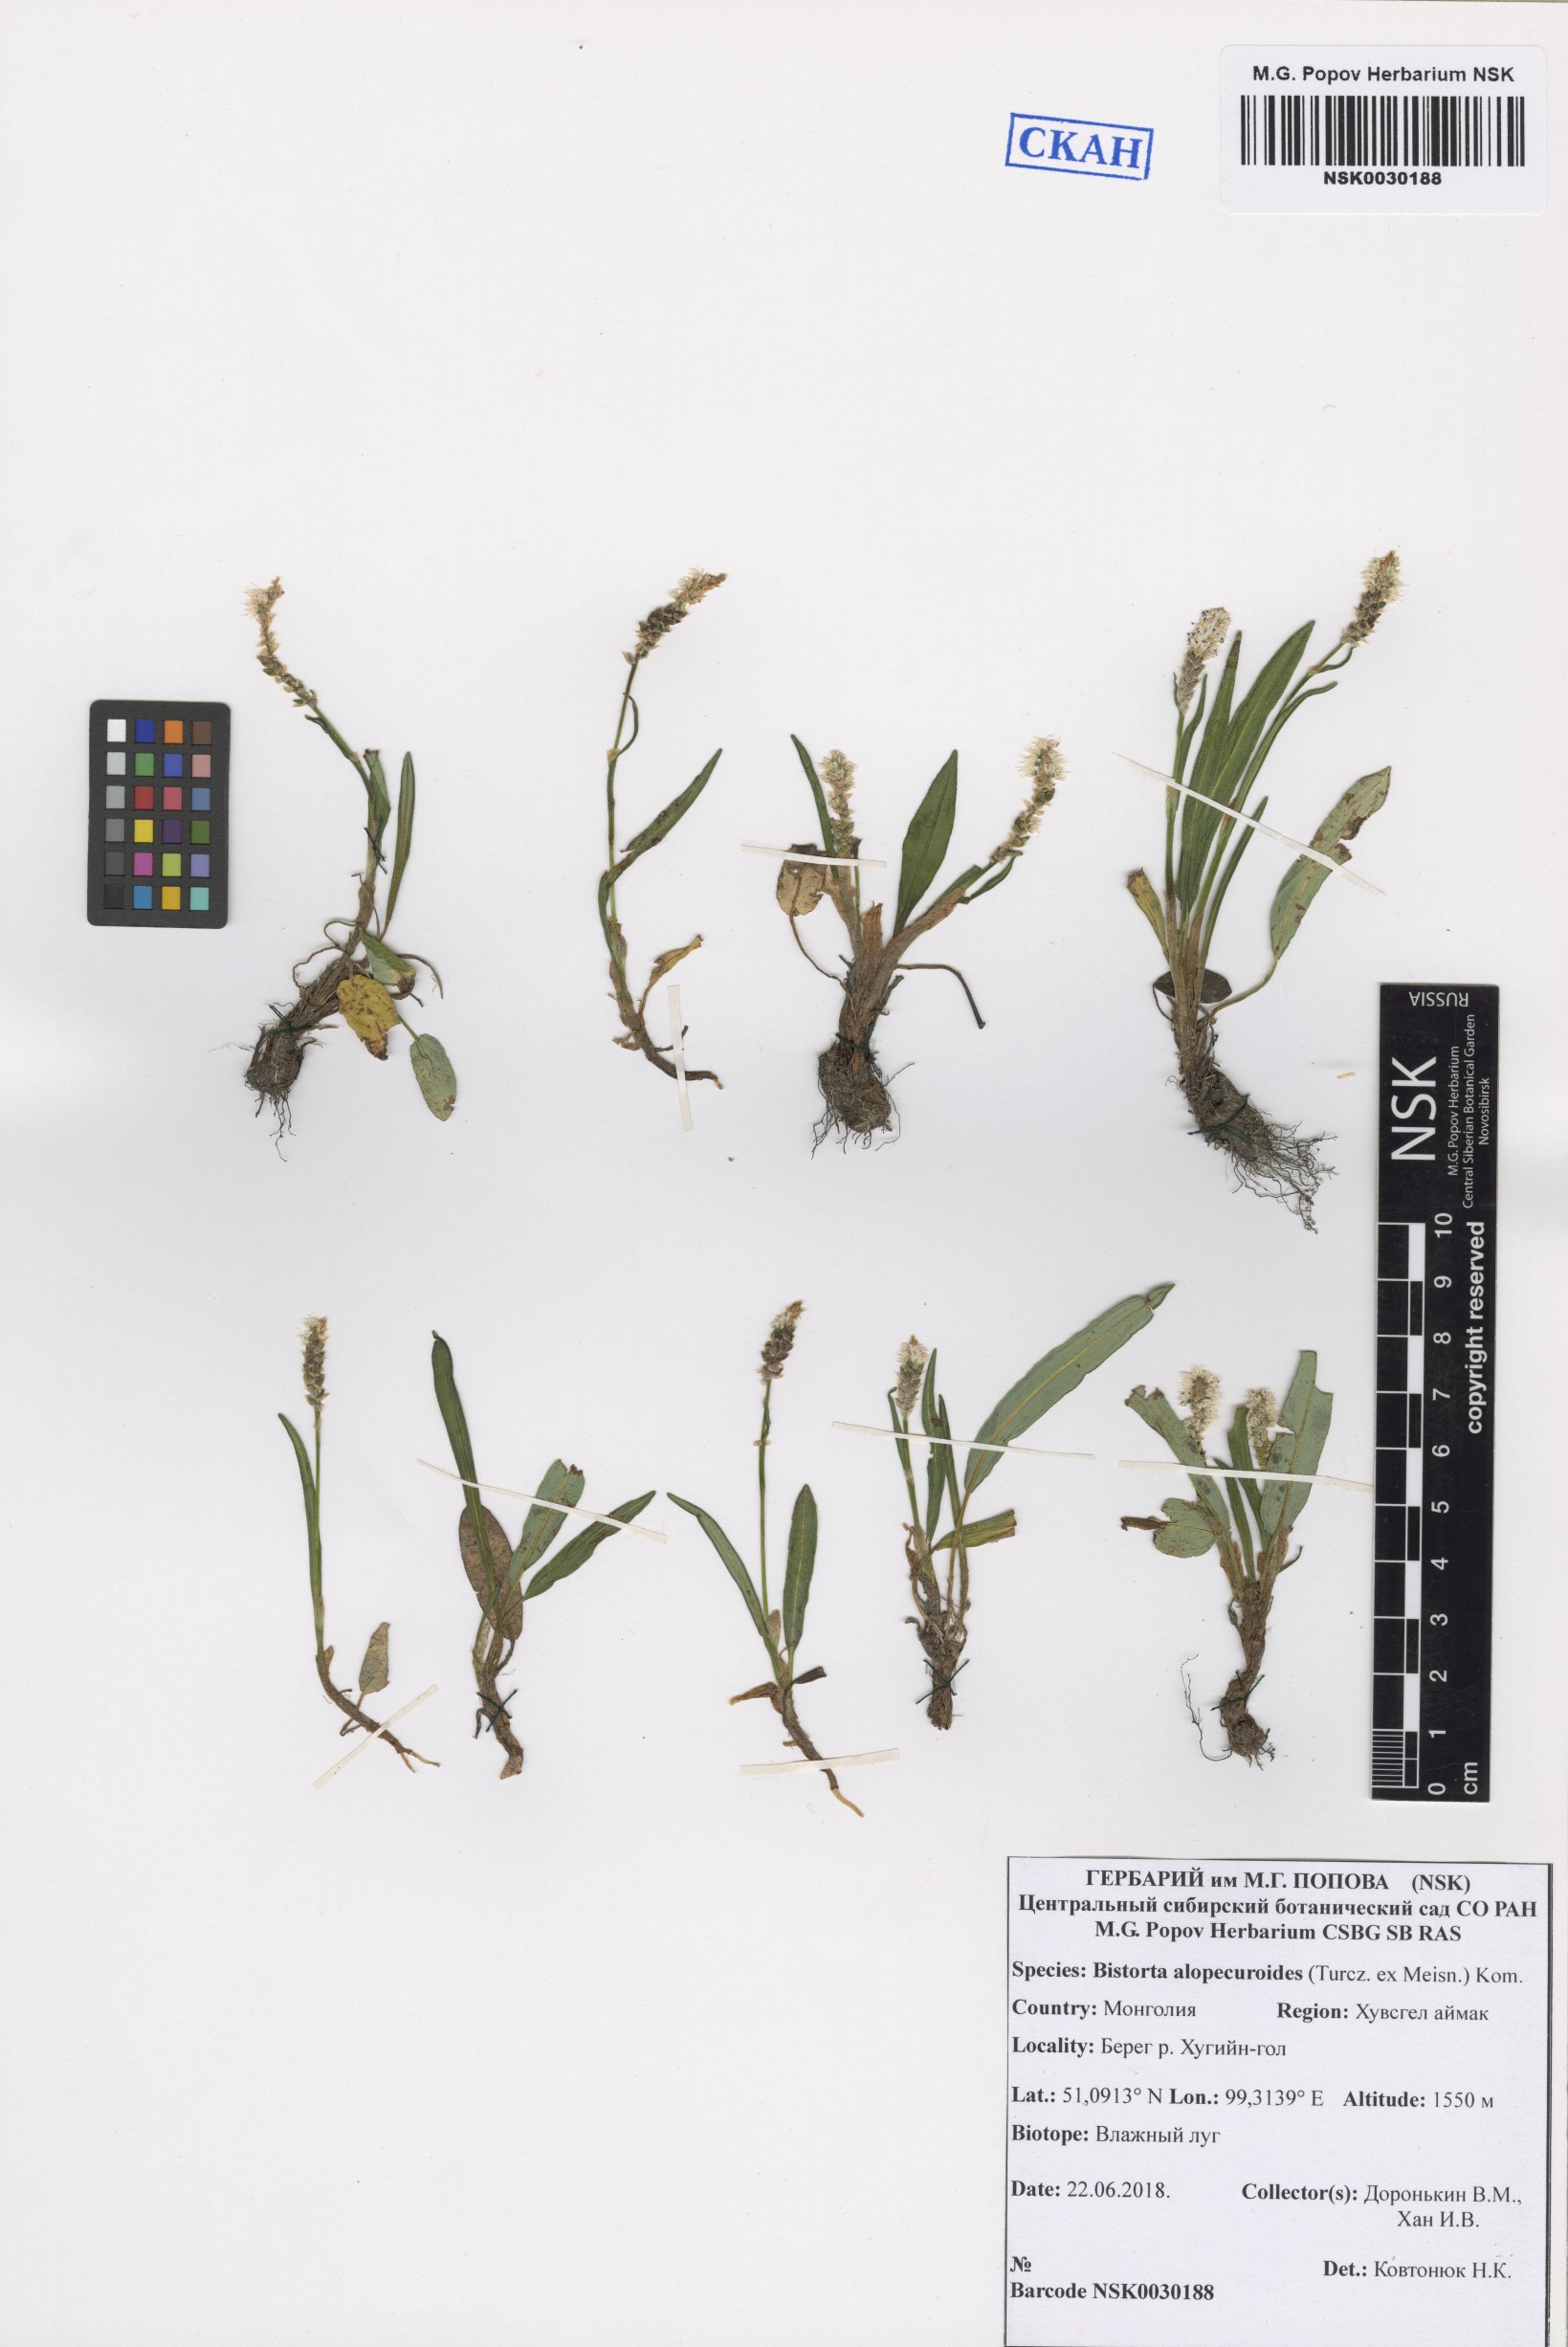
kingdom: Plantae
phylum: Tracheophyta
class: Magnoliopsida
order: Caryophyllales
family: Polygonaceae
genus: Bistorta
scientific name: Bistorta alopecuroides
